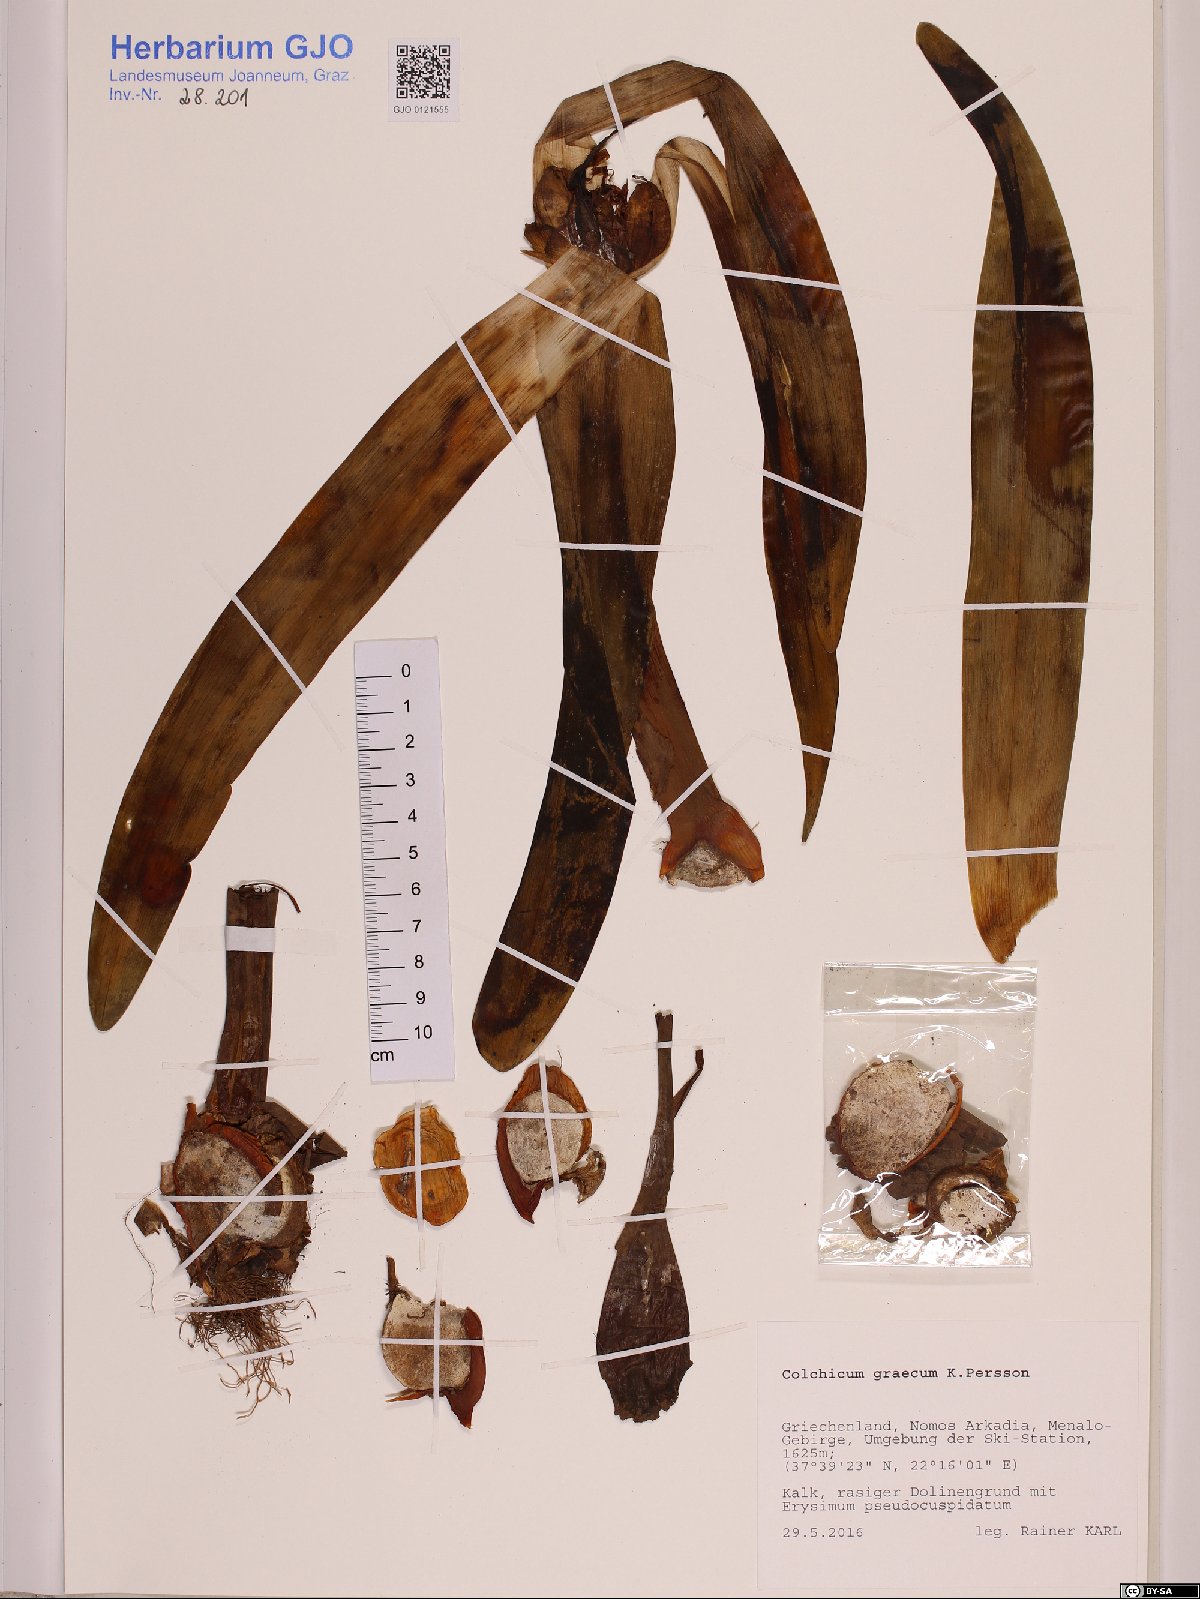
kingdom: Plantae
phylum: Tracheophyta
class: Liliopsida
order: Liliales
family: Colchicaceae
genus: Colchicum
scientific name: Colchicum graecum
